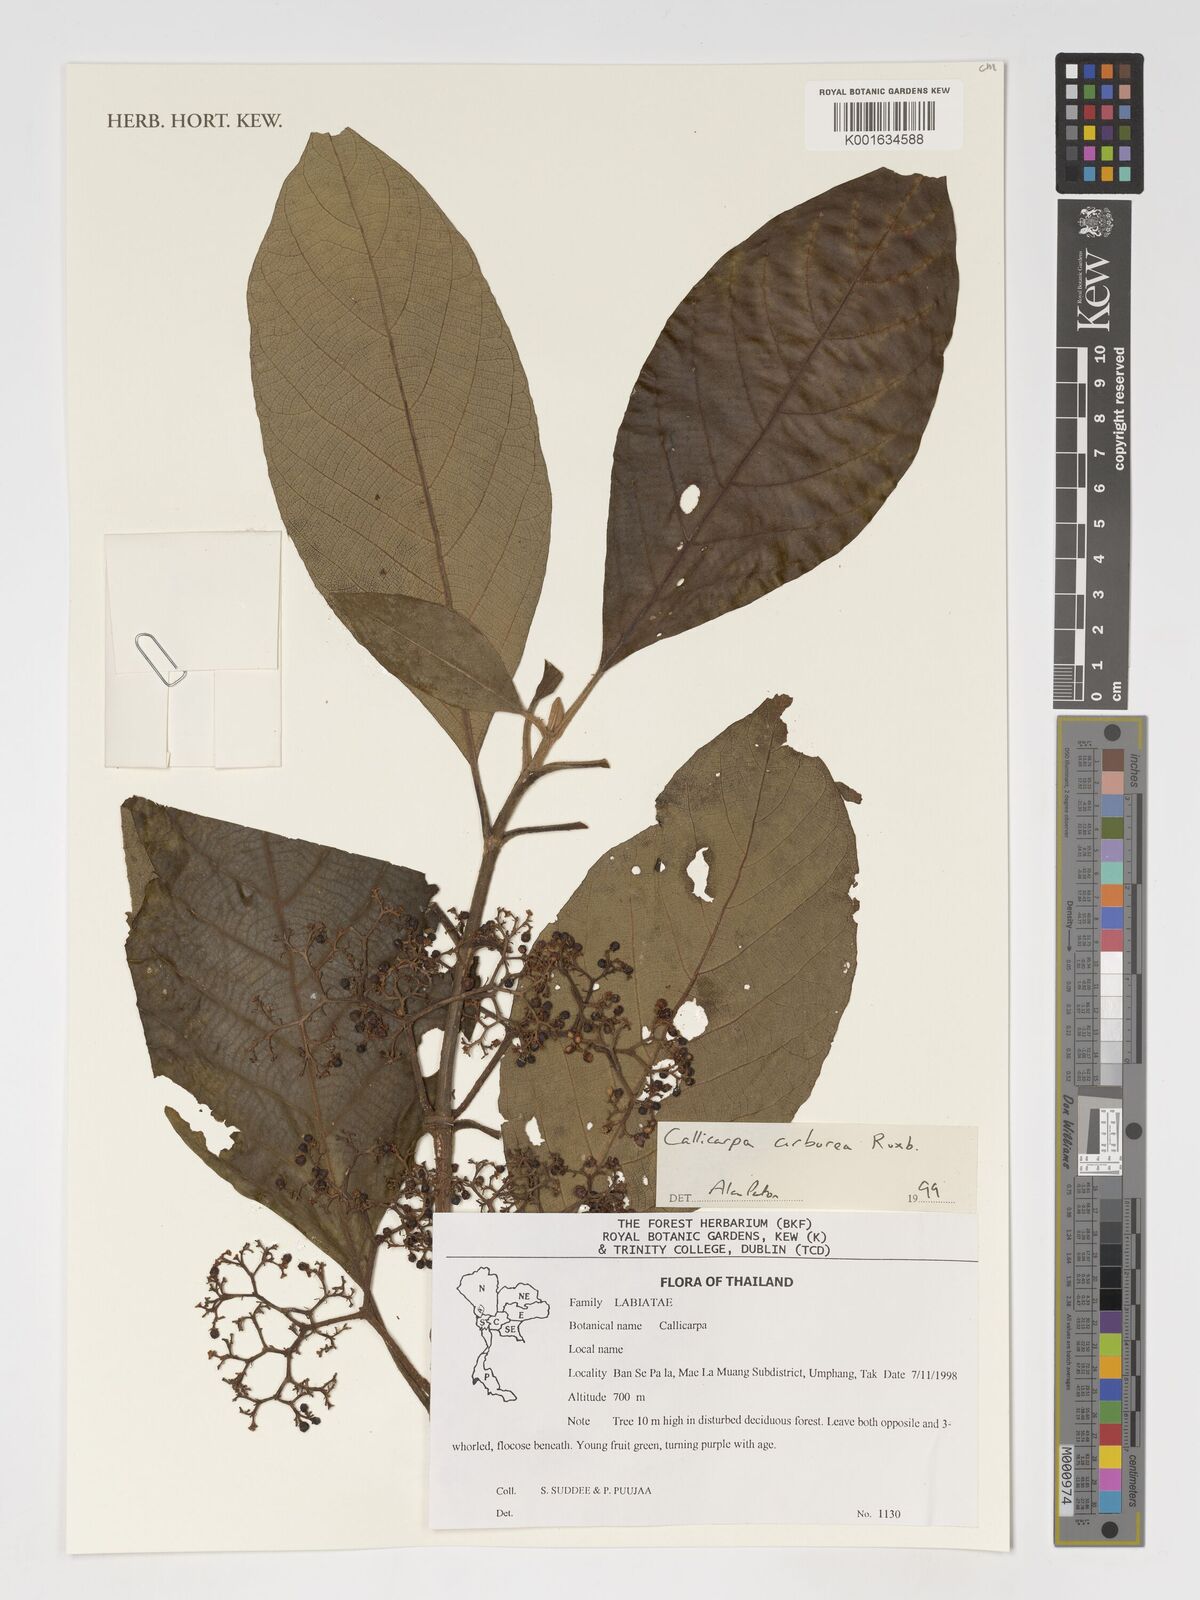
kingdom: Plantae
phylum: Tracheophyta
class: Magnoliopsida
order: Lamiales
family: Lamiaceae
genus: Callicarpa
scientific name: Callicarpa arborea
